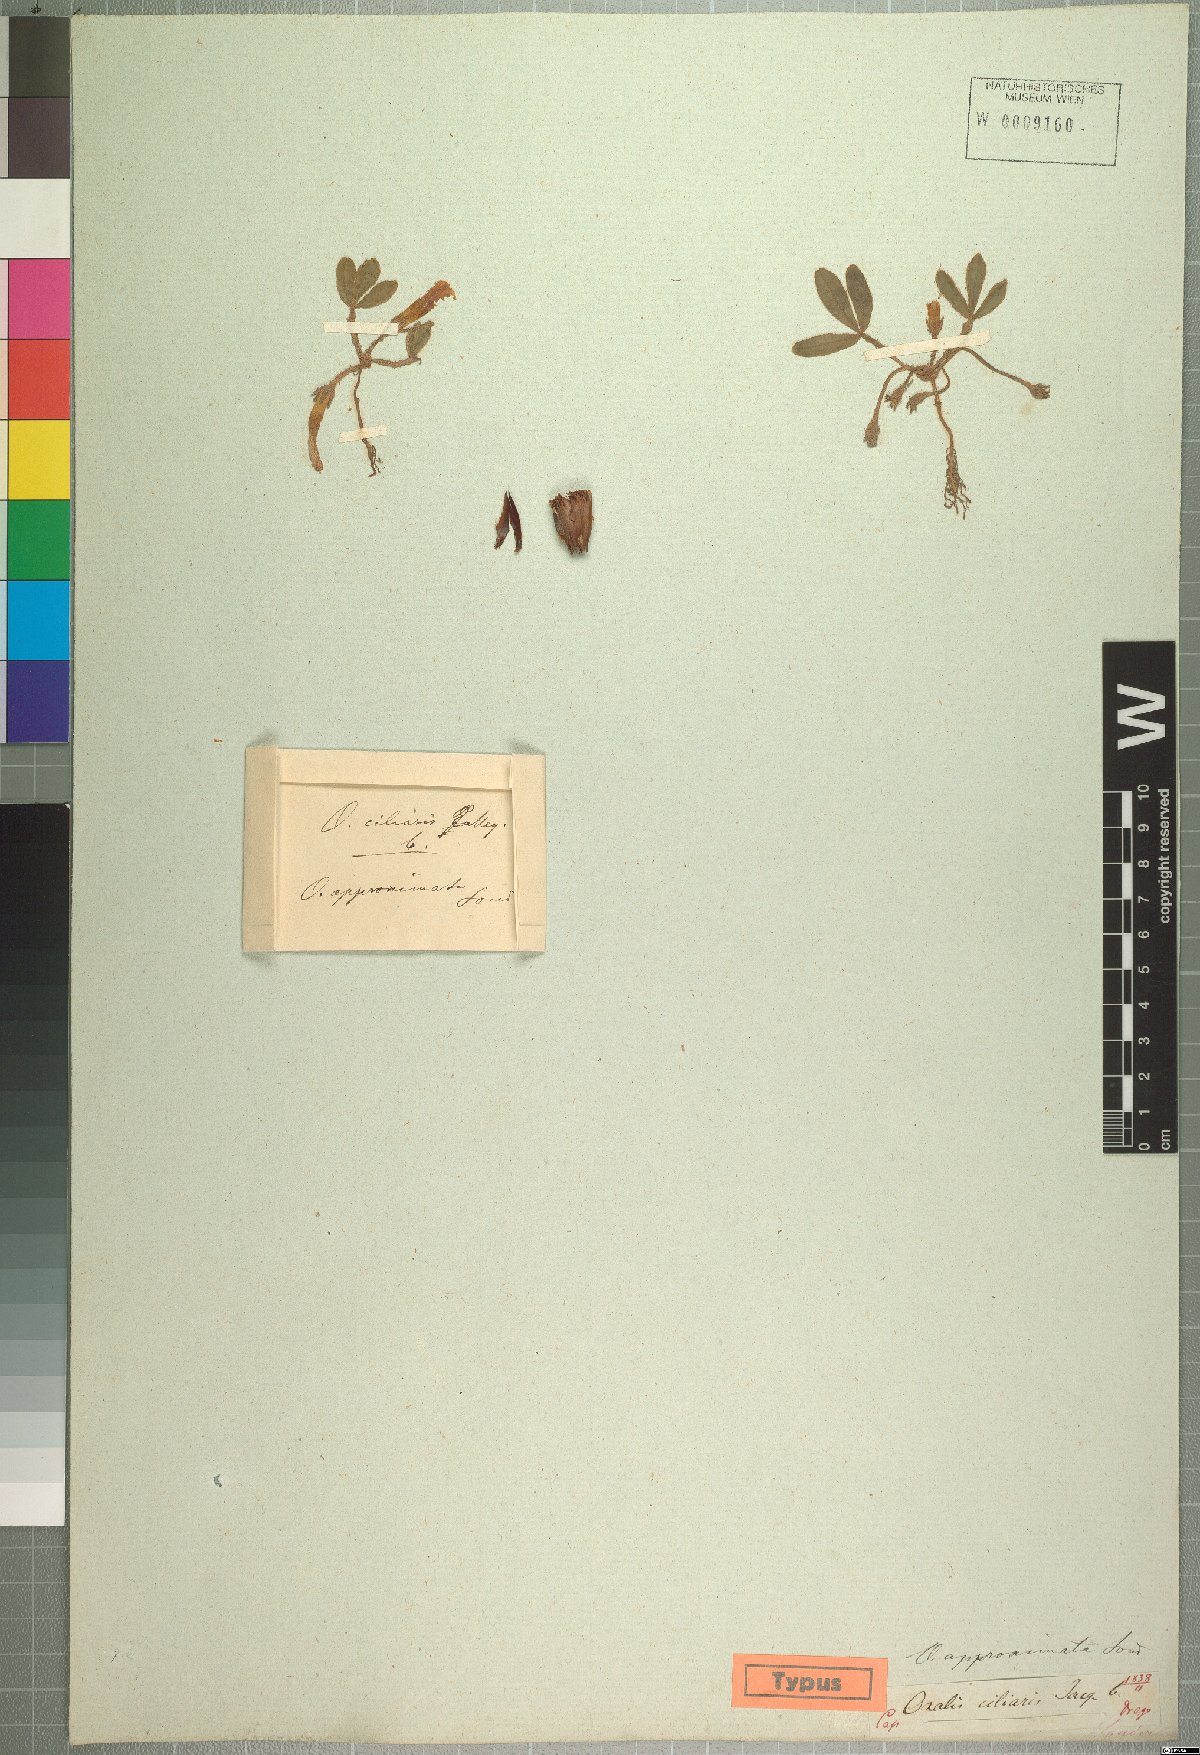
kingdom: Plantae
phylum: Tracheophyta
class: Magnoliopsida
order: Oxalidales
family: Oxalidaceae
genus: Oxalis
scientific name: Oxalis eckloniana
